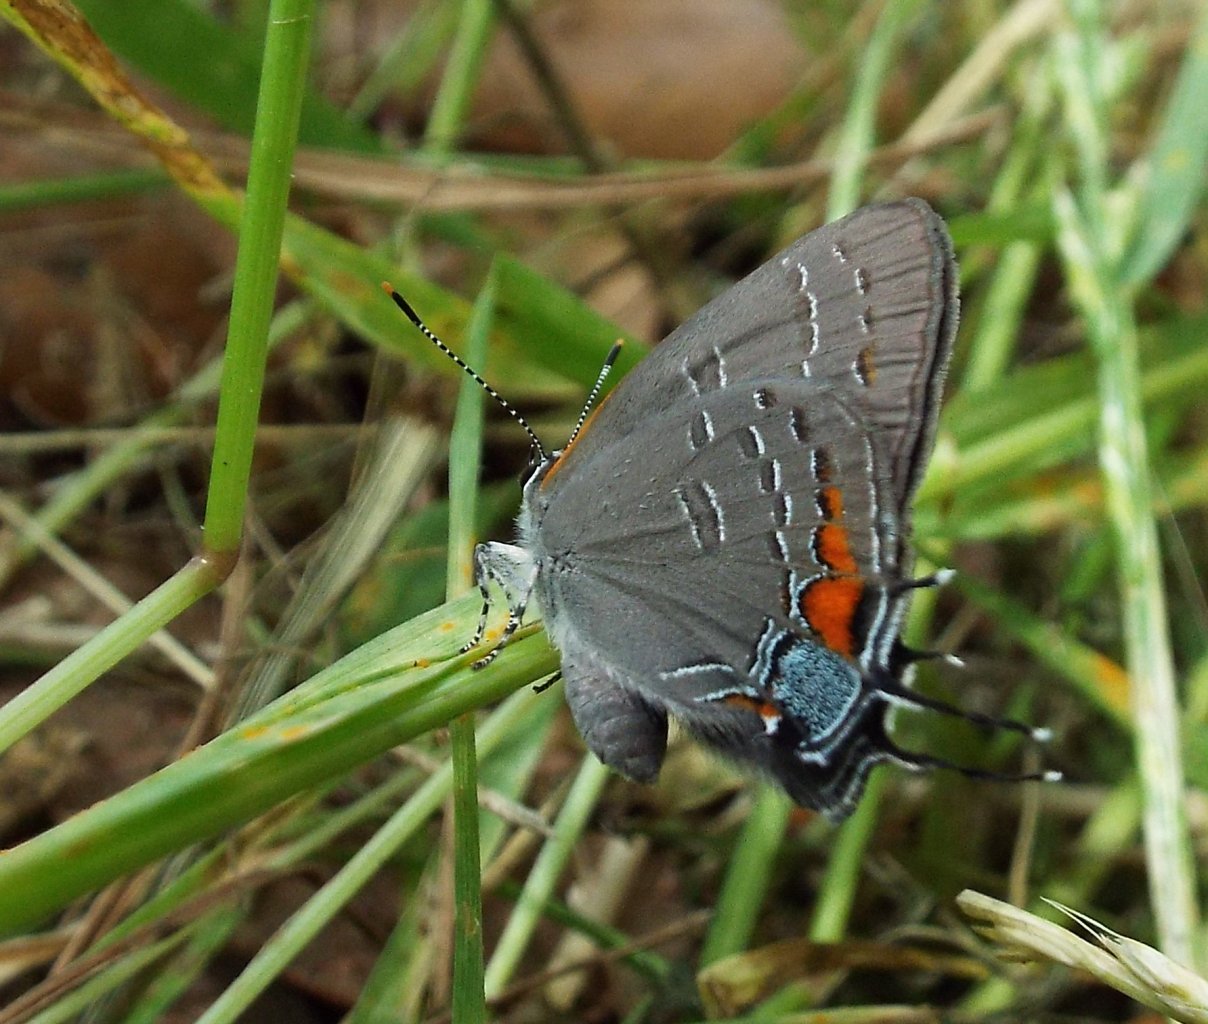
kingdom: Animalia
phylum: Arthropoda
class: Insecta
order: Lepidoptera
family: Lycaenidae
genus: Satyrium
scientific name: Satyrium calanus
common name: Banded Hairstreak
